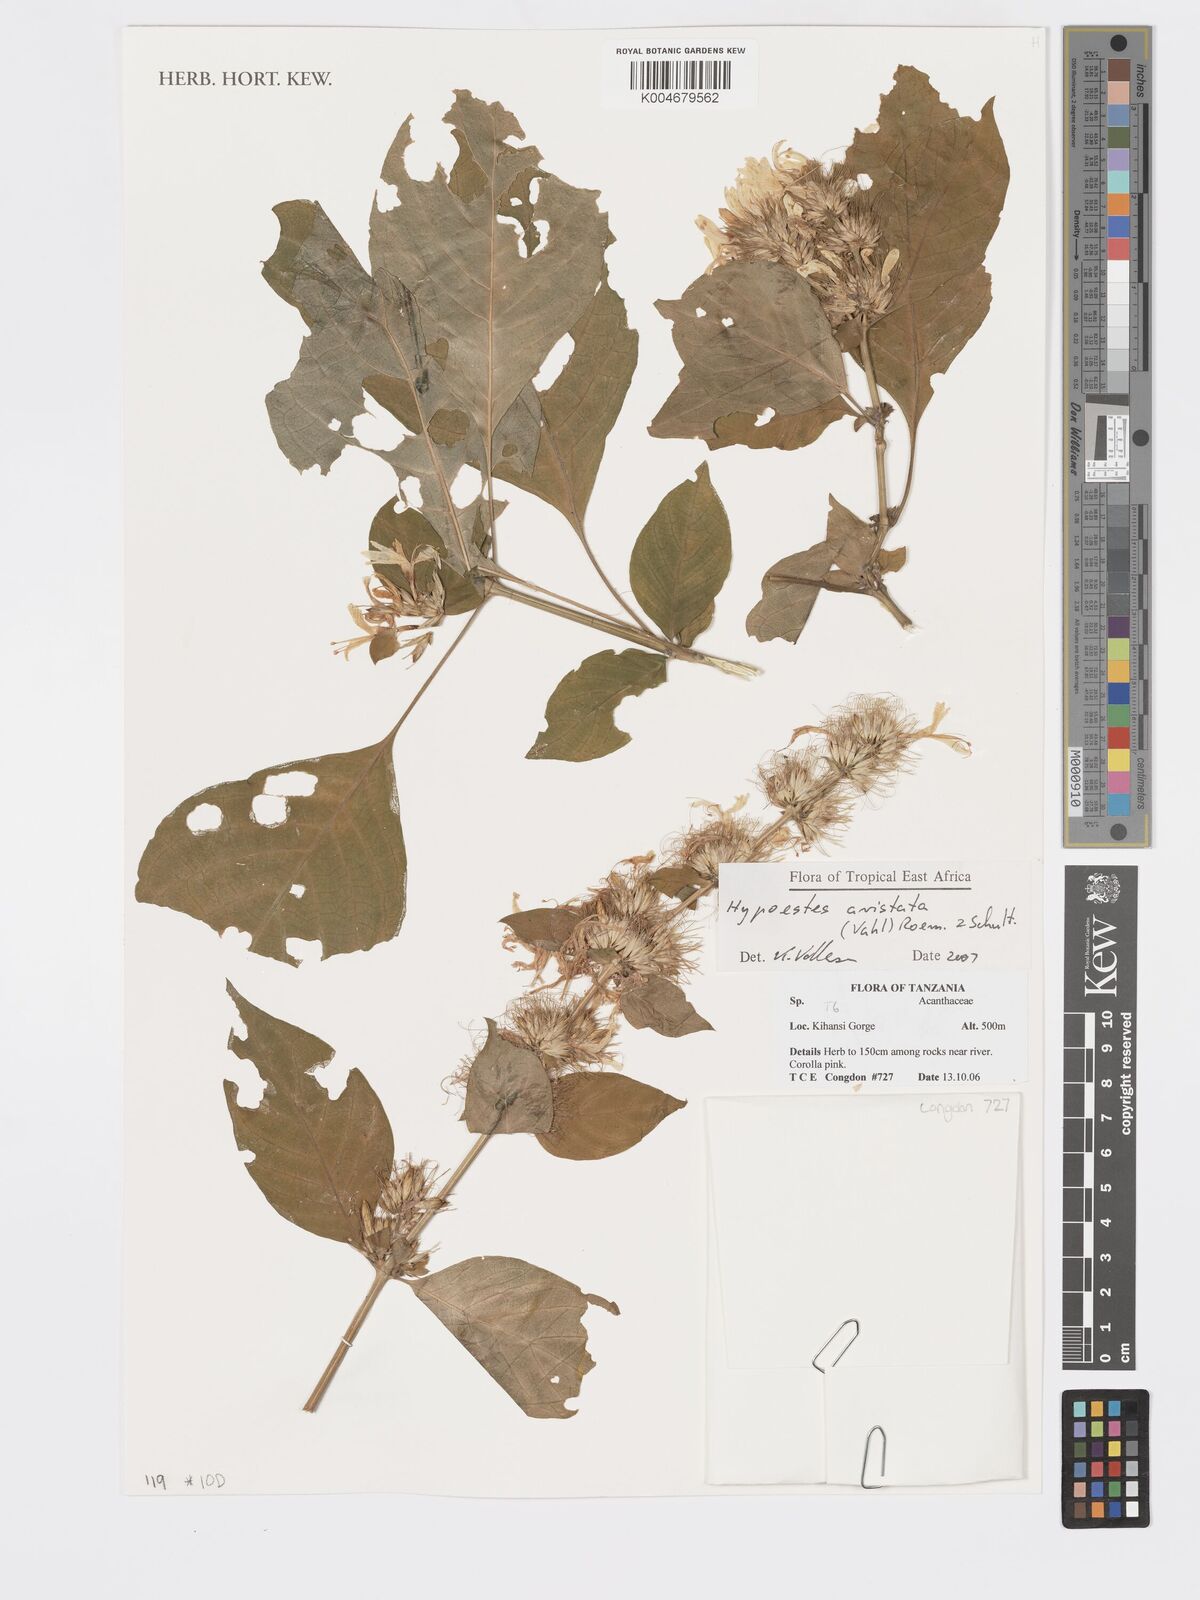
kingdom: Plantae
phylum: Tracheophyta
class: Magnoliopsida
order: Lamiales
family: Acanthaceae
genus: Hypoestes
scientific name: Hypoestes aristata
